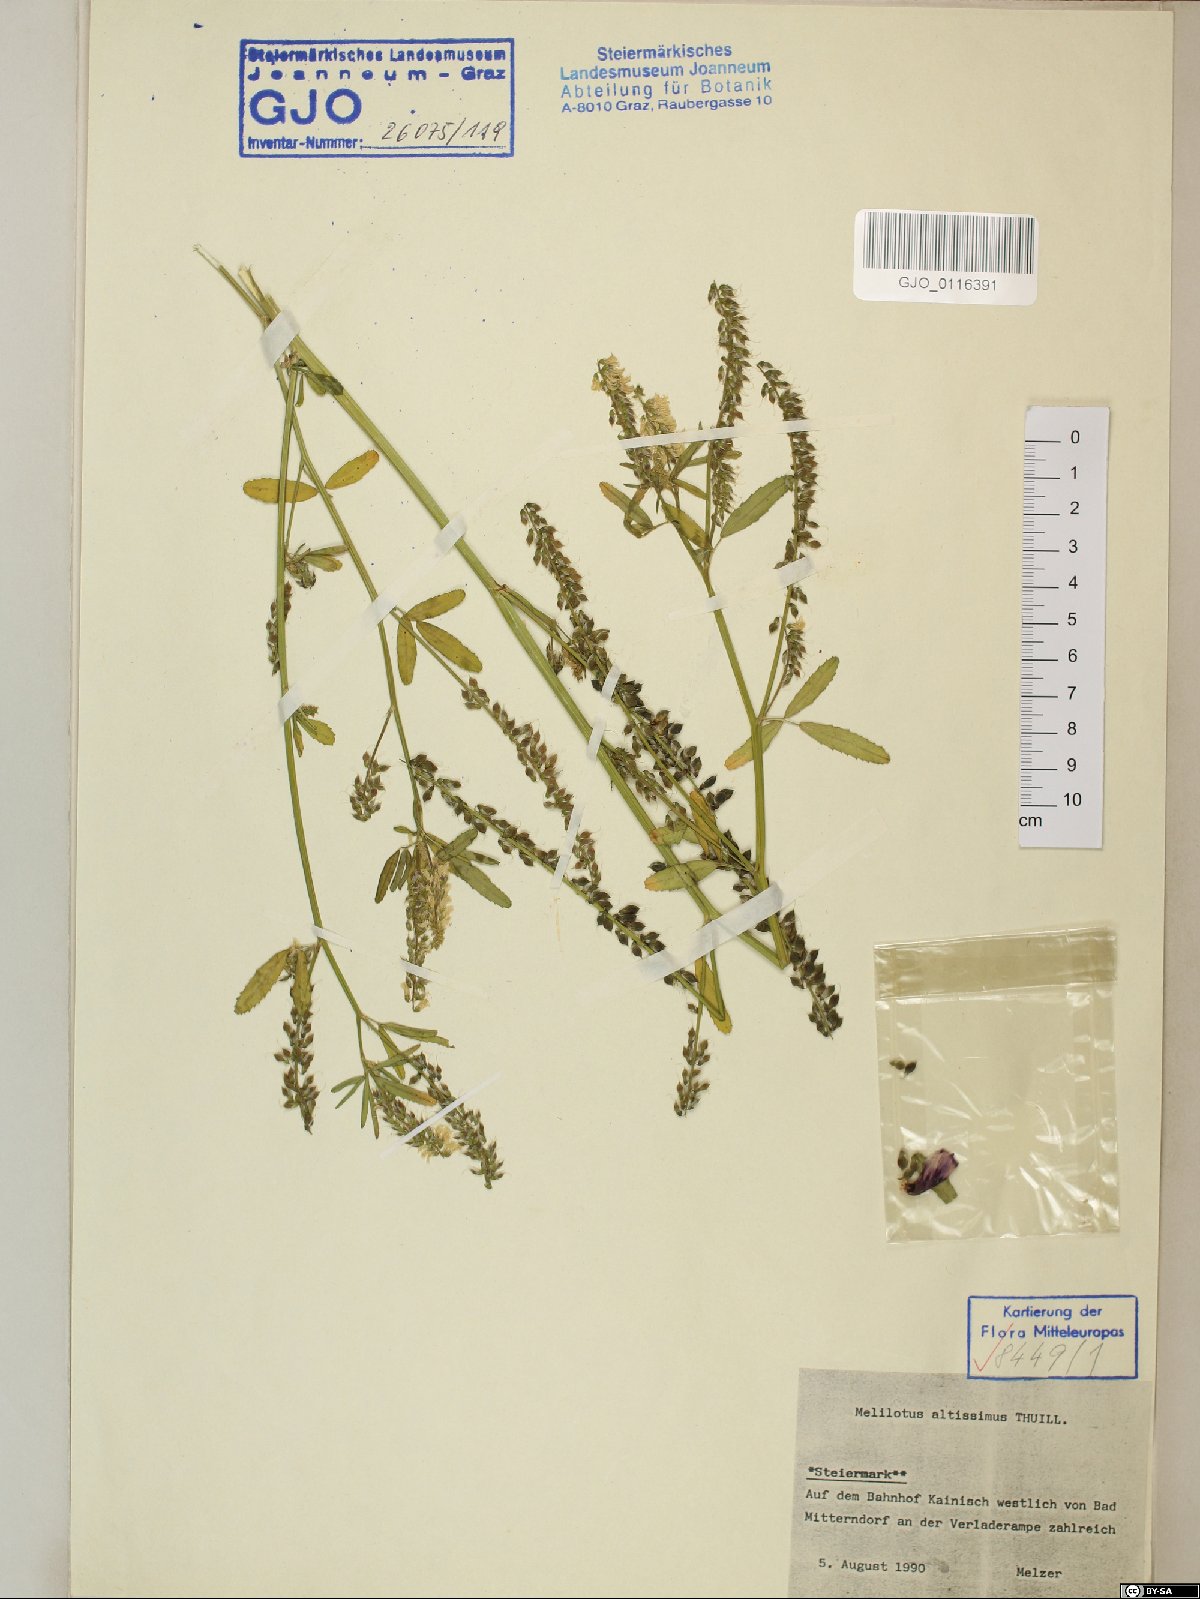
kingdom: Plantae
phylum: Tracheophyta
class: Magnoliopsida
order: Fabales
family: Fabaceae
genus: Melilotus
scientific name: Melilotus altissimus
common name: Tall melilot
